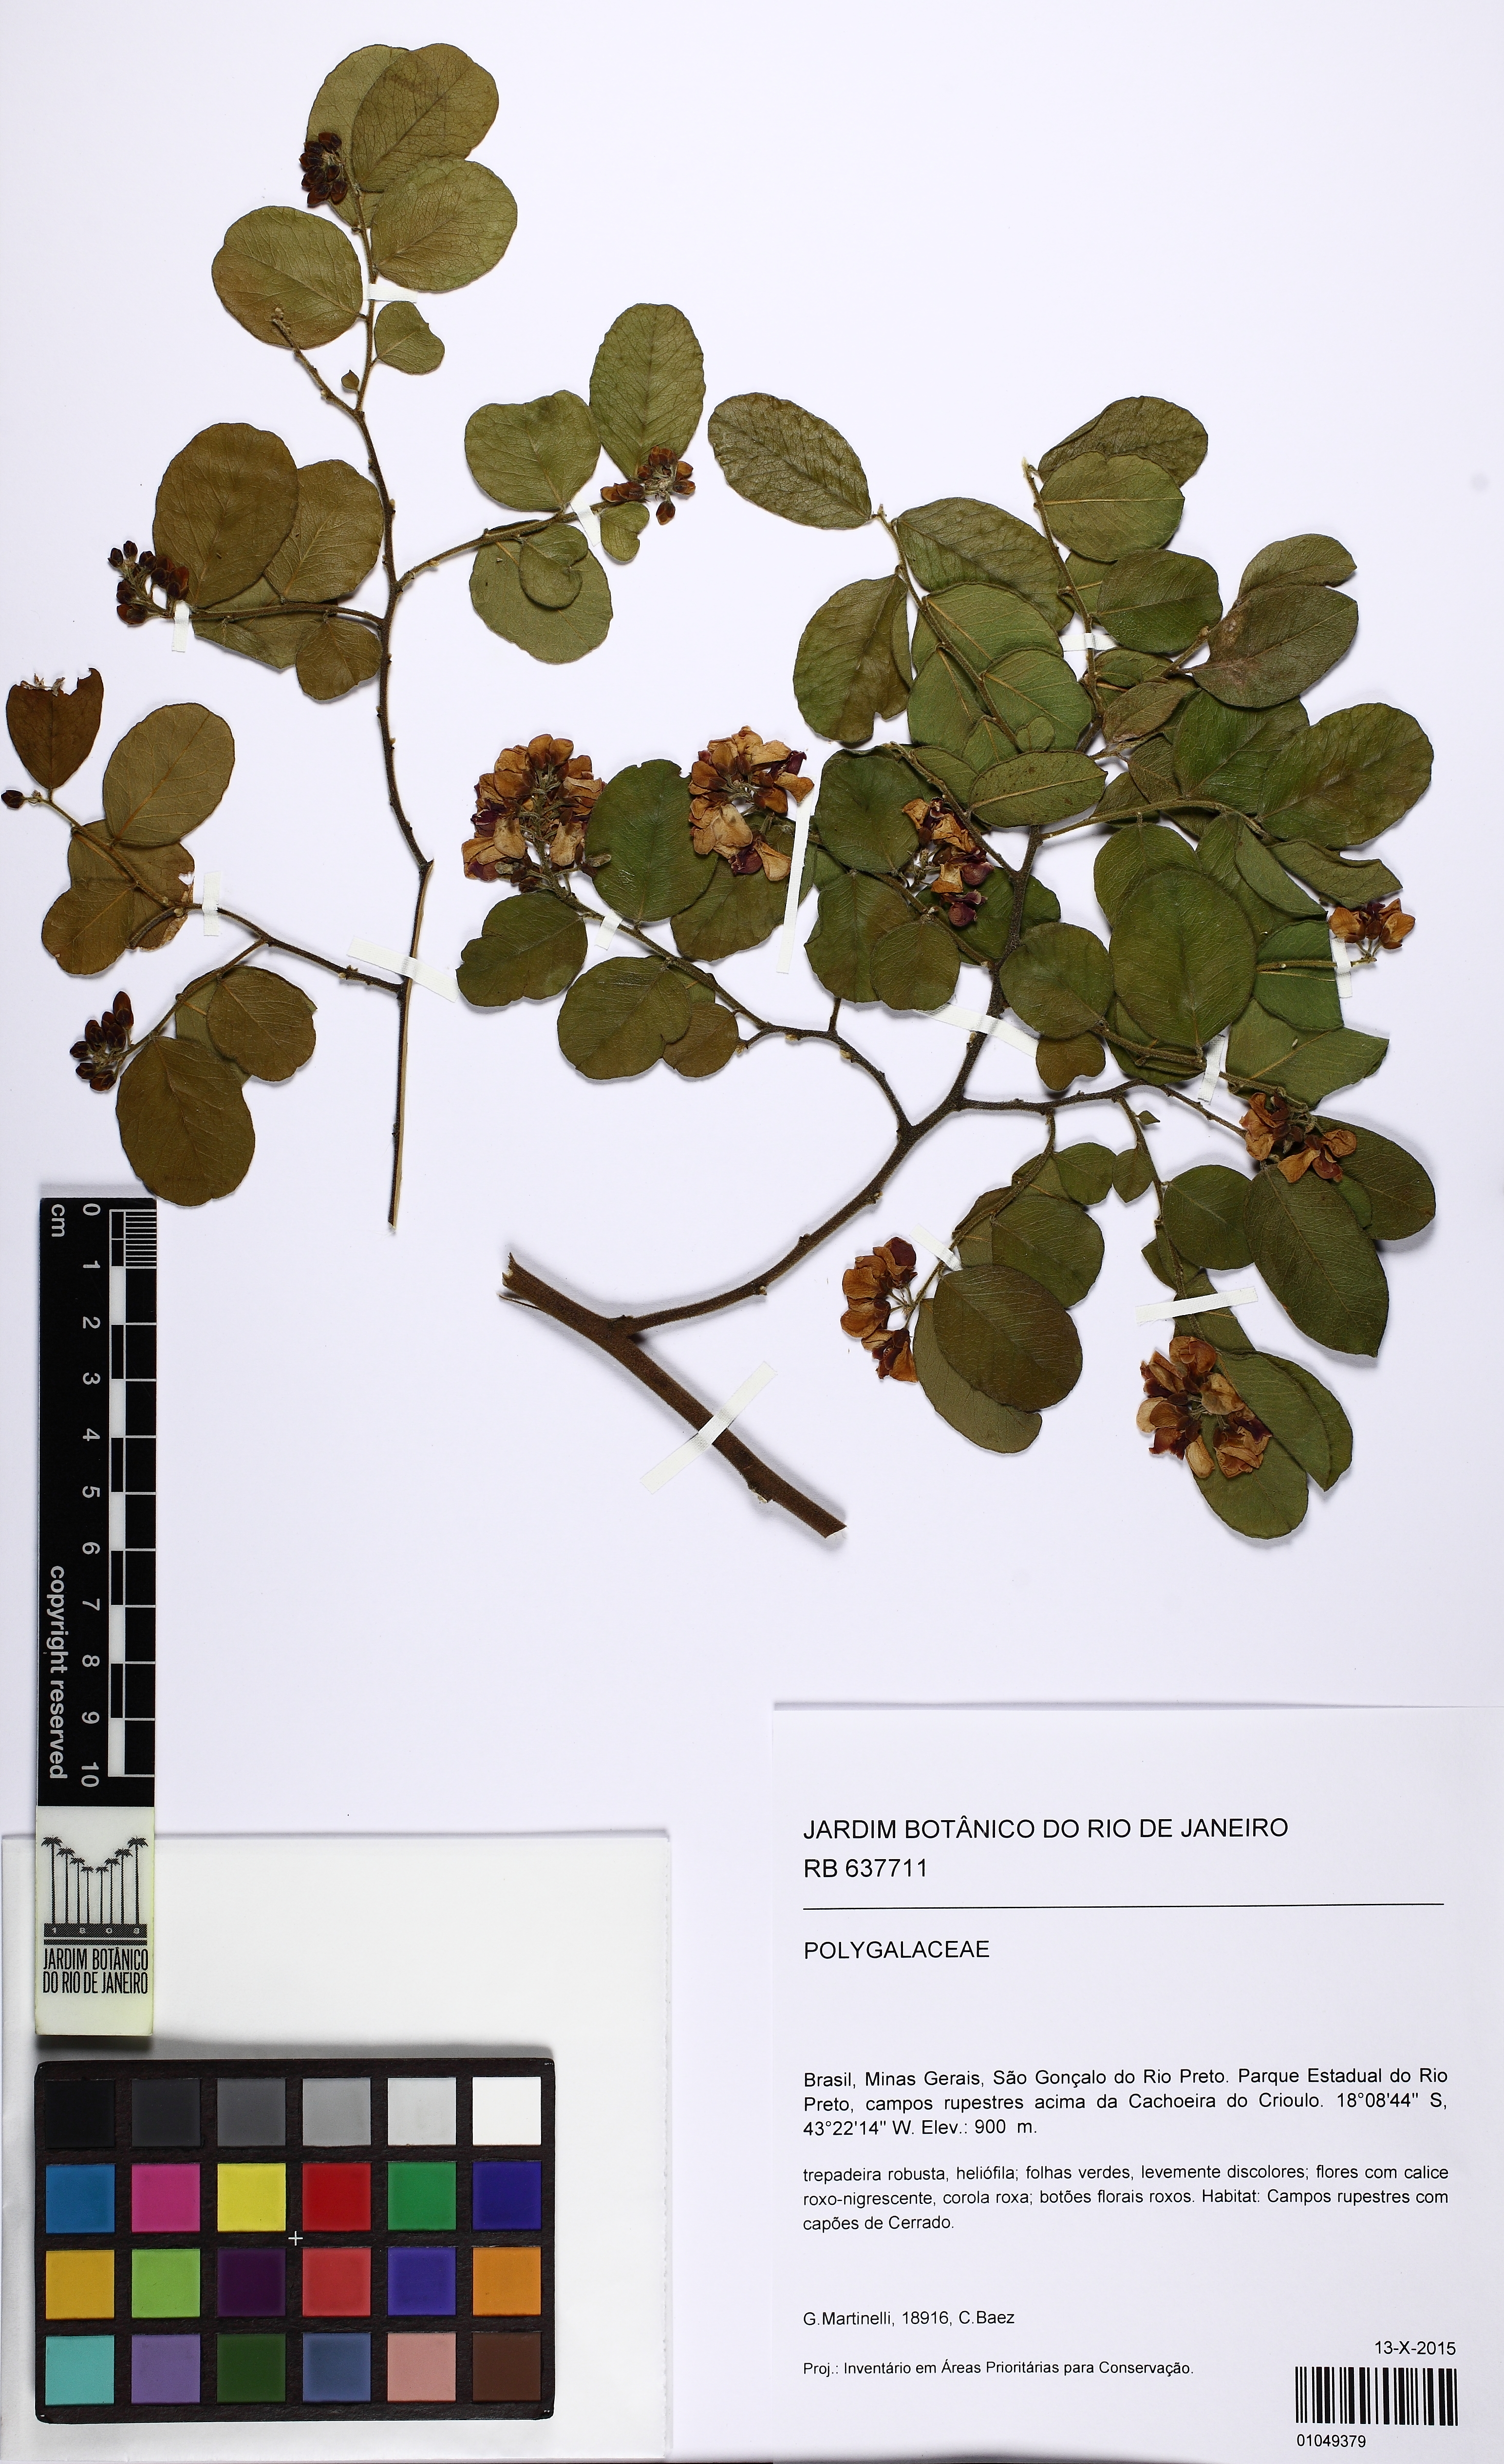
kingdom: Plantae
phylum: Tracheophyta
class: Magnoliopsida
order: Fabales
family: Polygalaceae
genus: Securidaca
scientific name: Securidaca
